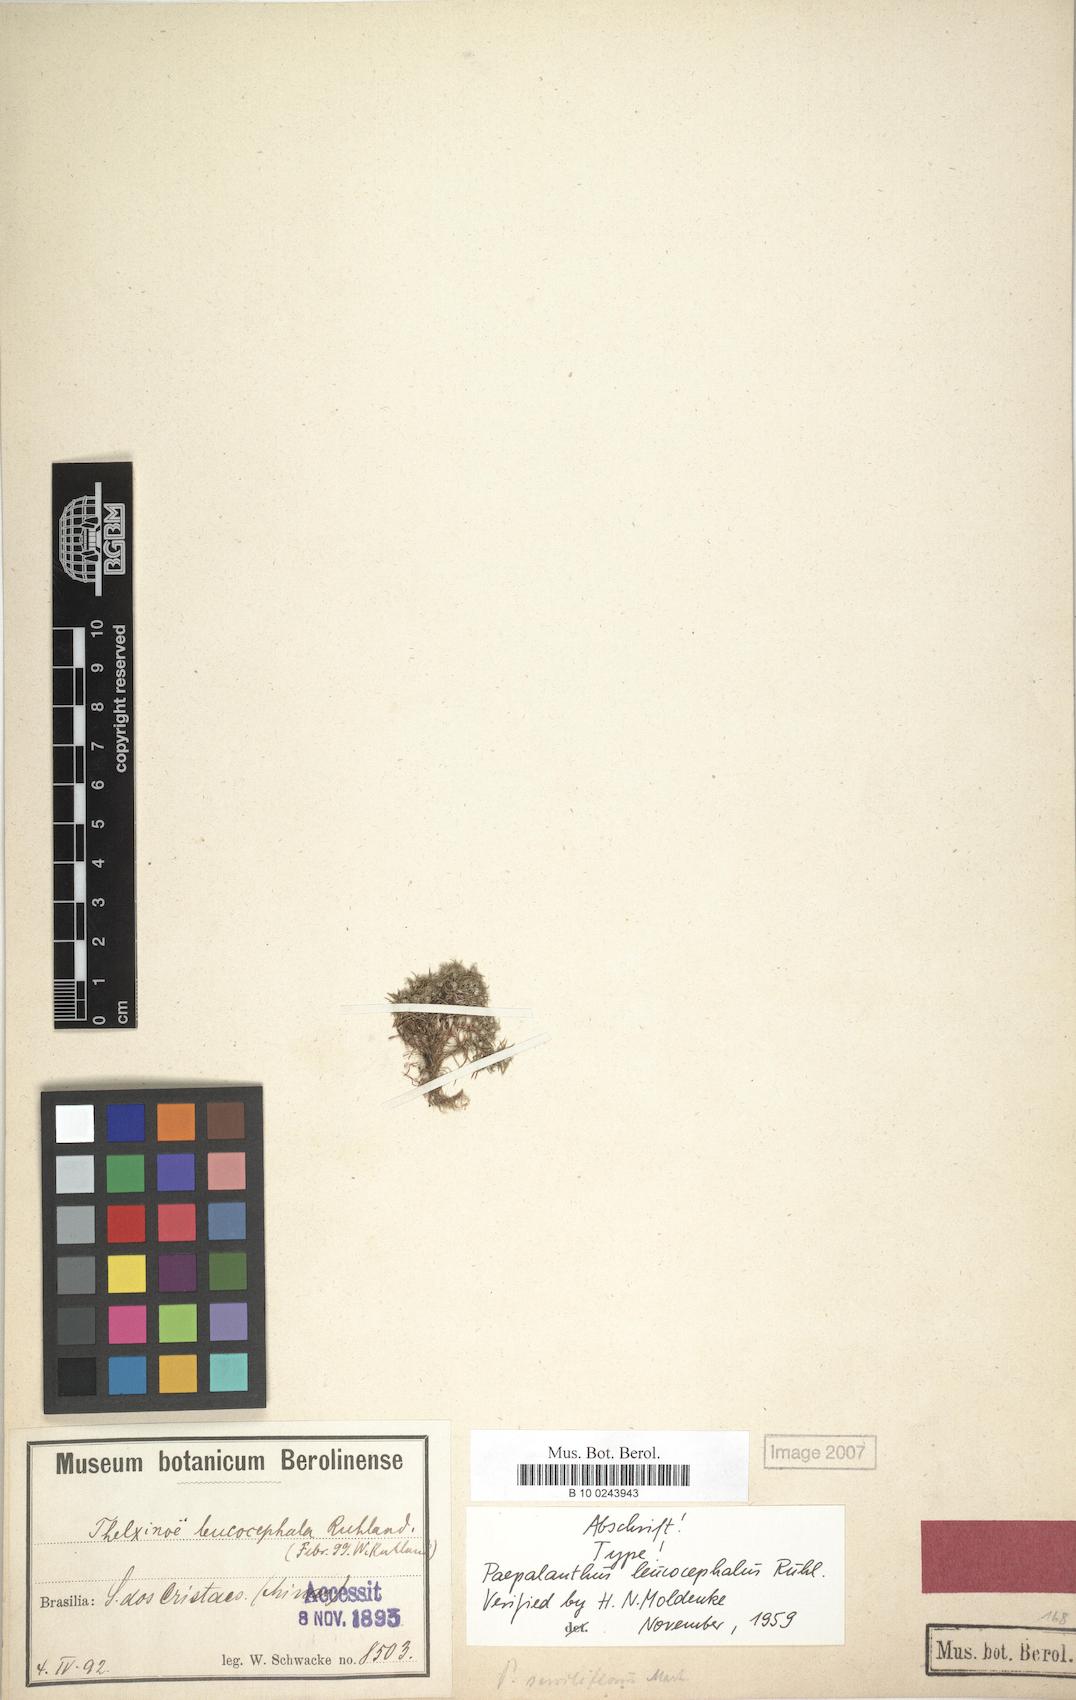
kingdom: Plantae
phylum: Tracheophyta
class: Liliopsida
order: Poales
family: Eriocaulaceae
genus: Paepalanthus
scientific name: Paepalanthus leucocephalus
